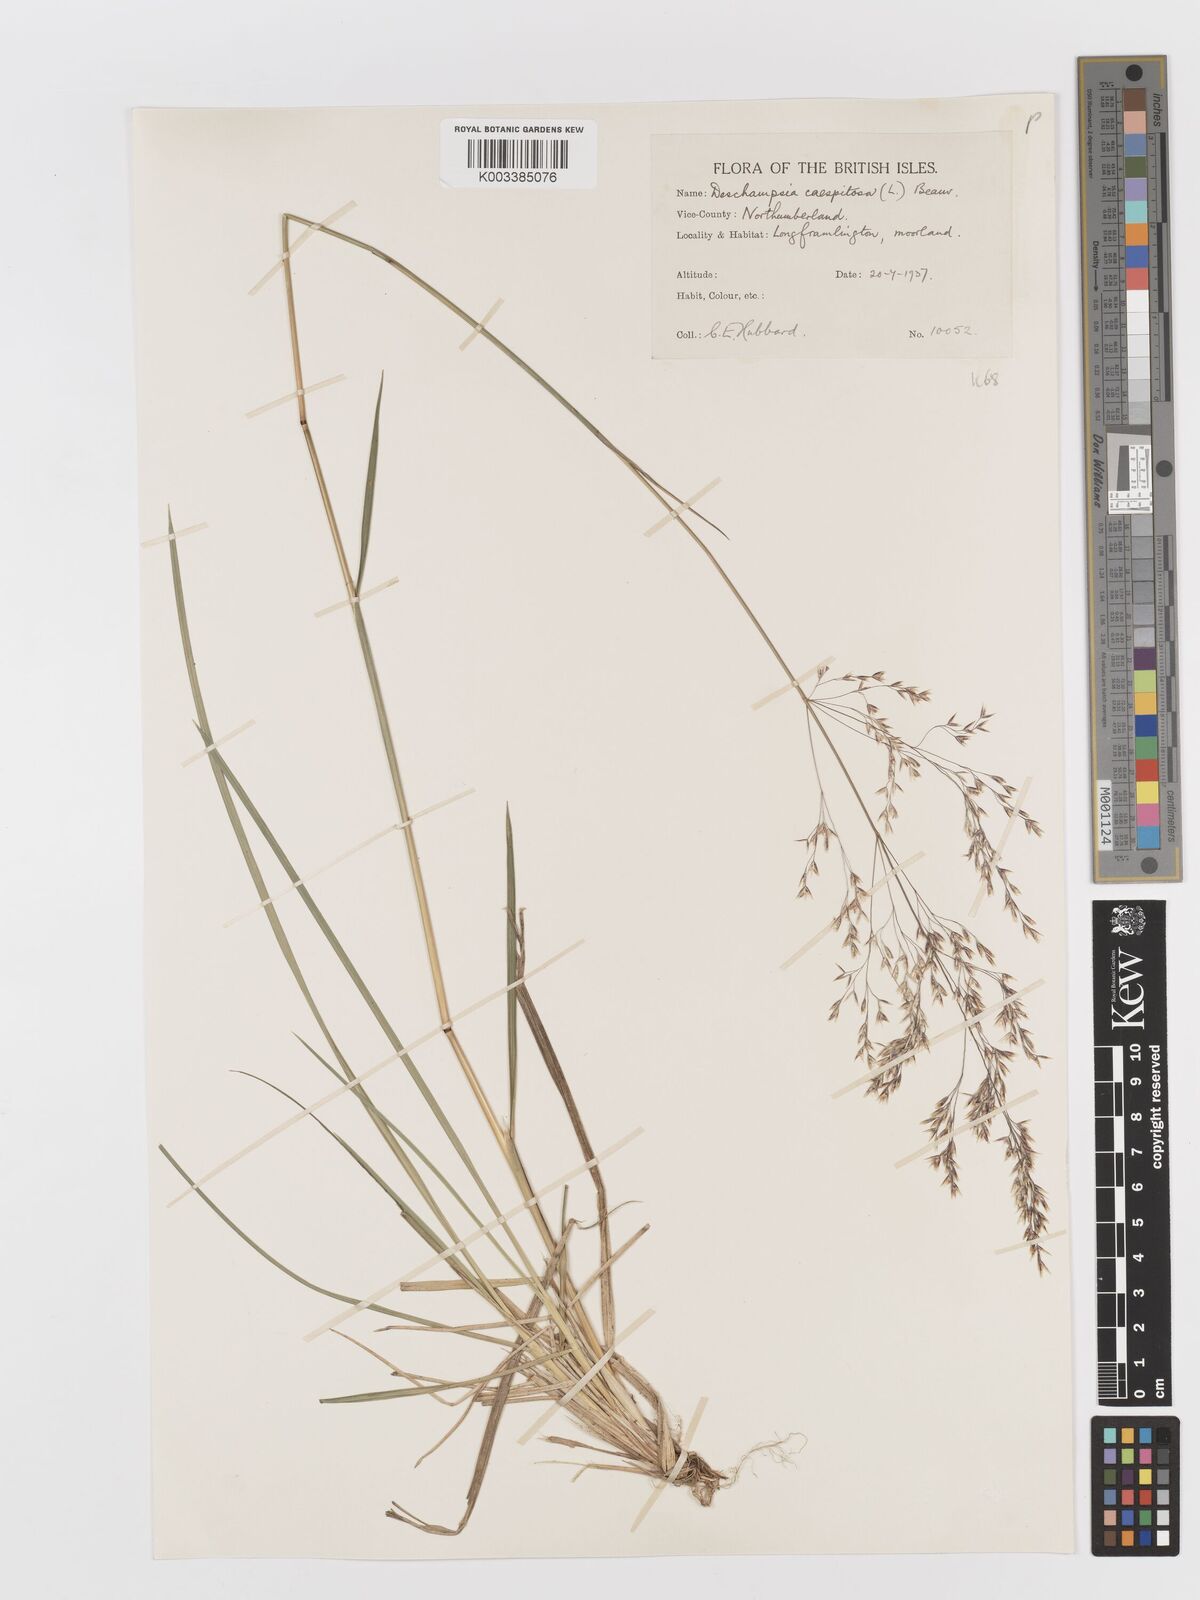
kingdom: Plantae
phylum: Tracheophyta
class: Liliopsida
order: Poales
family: Poaceae
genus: Deschampsia
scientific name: Deschampsia cespitosa
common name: Tufted hair-grass
